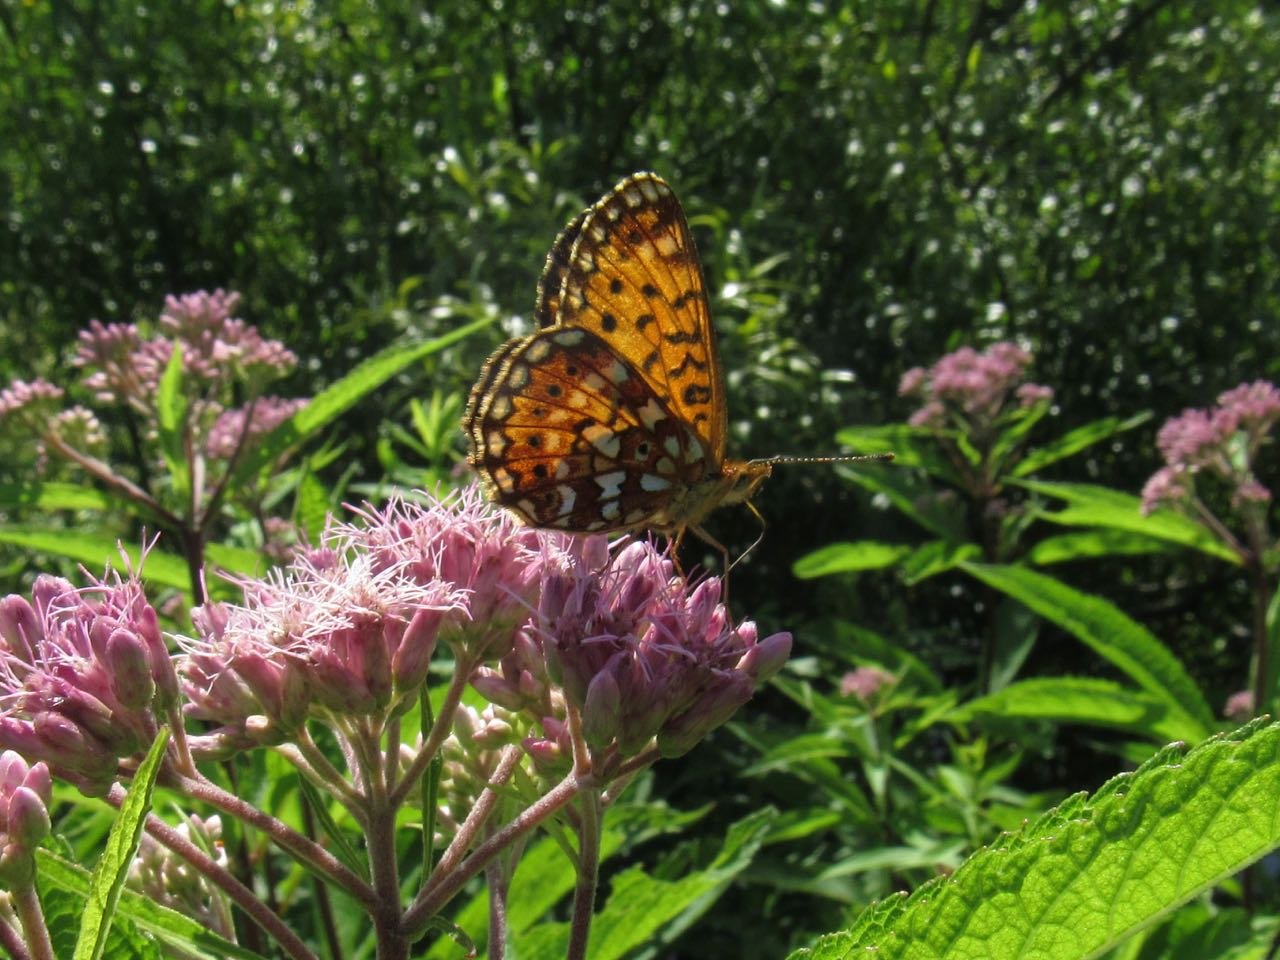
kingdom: Animalia
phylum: Arthropoda
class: Insecta
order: Lepidoptera
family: Nymphalidae
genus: Boloria
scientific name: Boloria selene
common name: Silver-bordered Fritillary
